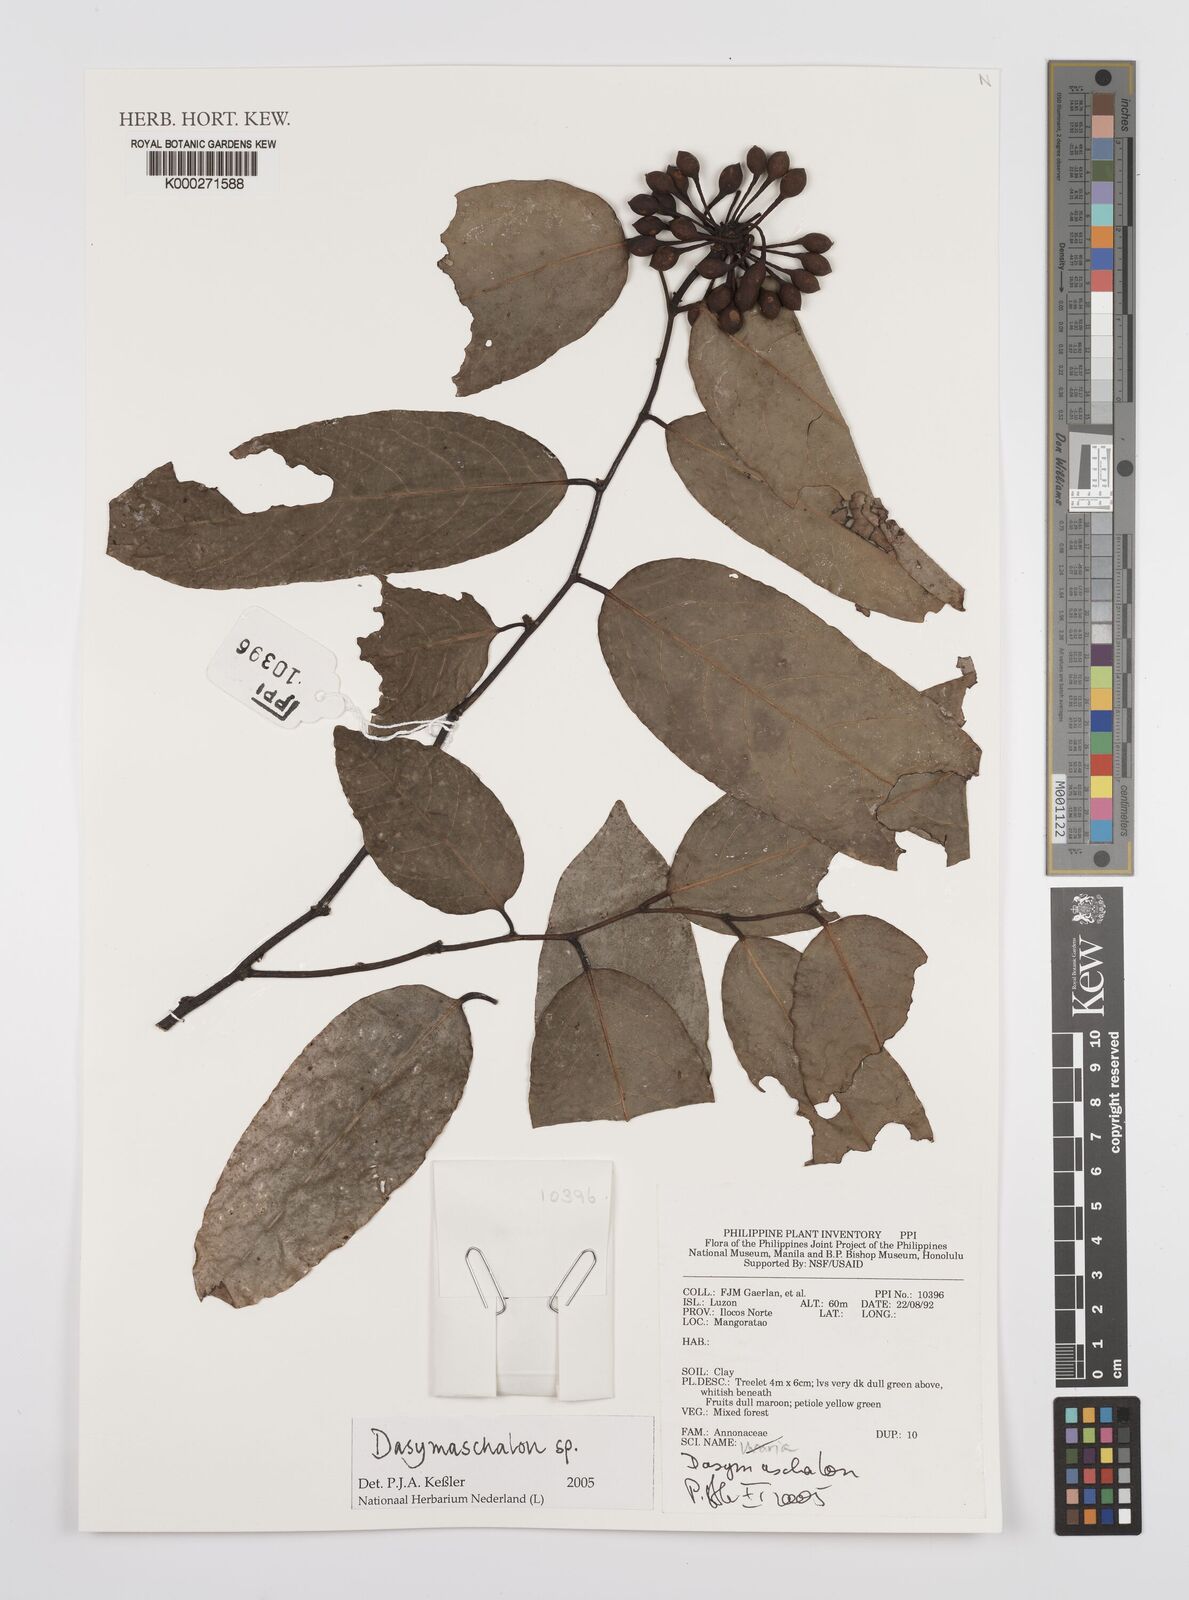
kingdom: Plantae
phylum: Tracheophyta
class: Magnoliopsida
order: Magnoliales
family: Annonaceae
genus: Dasymaschalon
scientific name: Dasymaschalon
